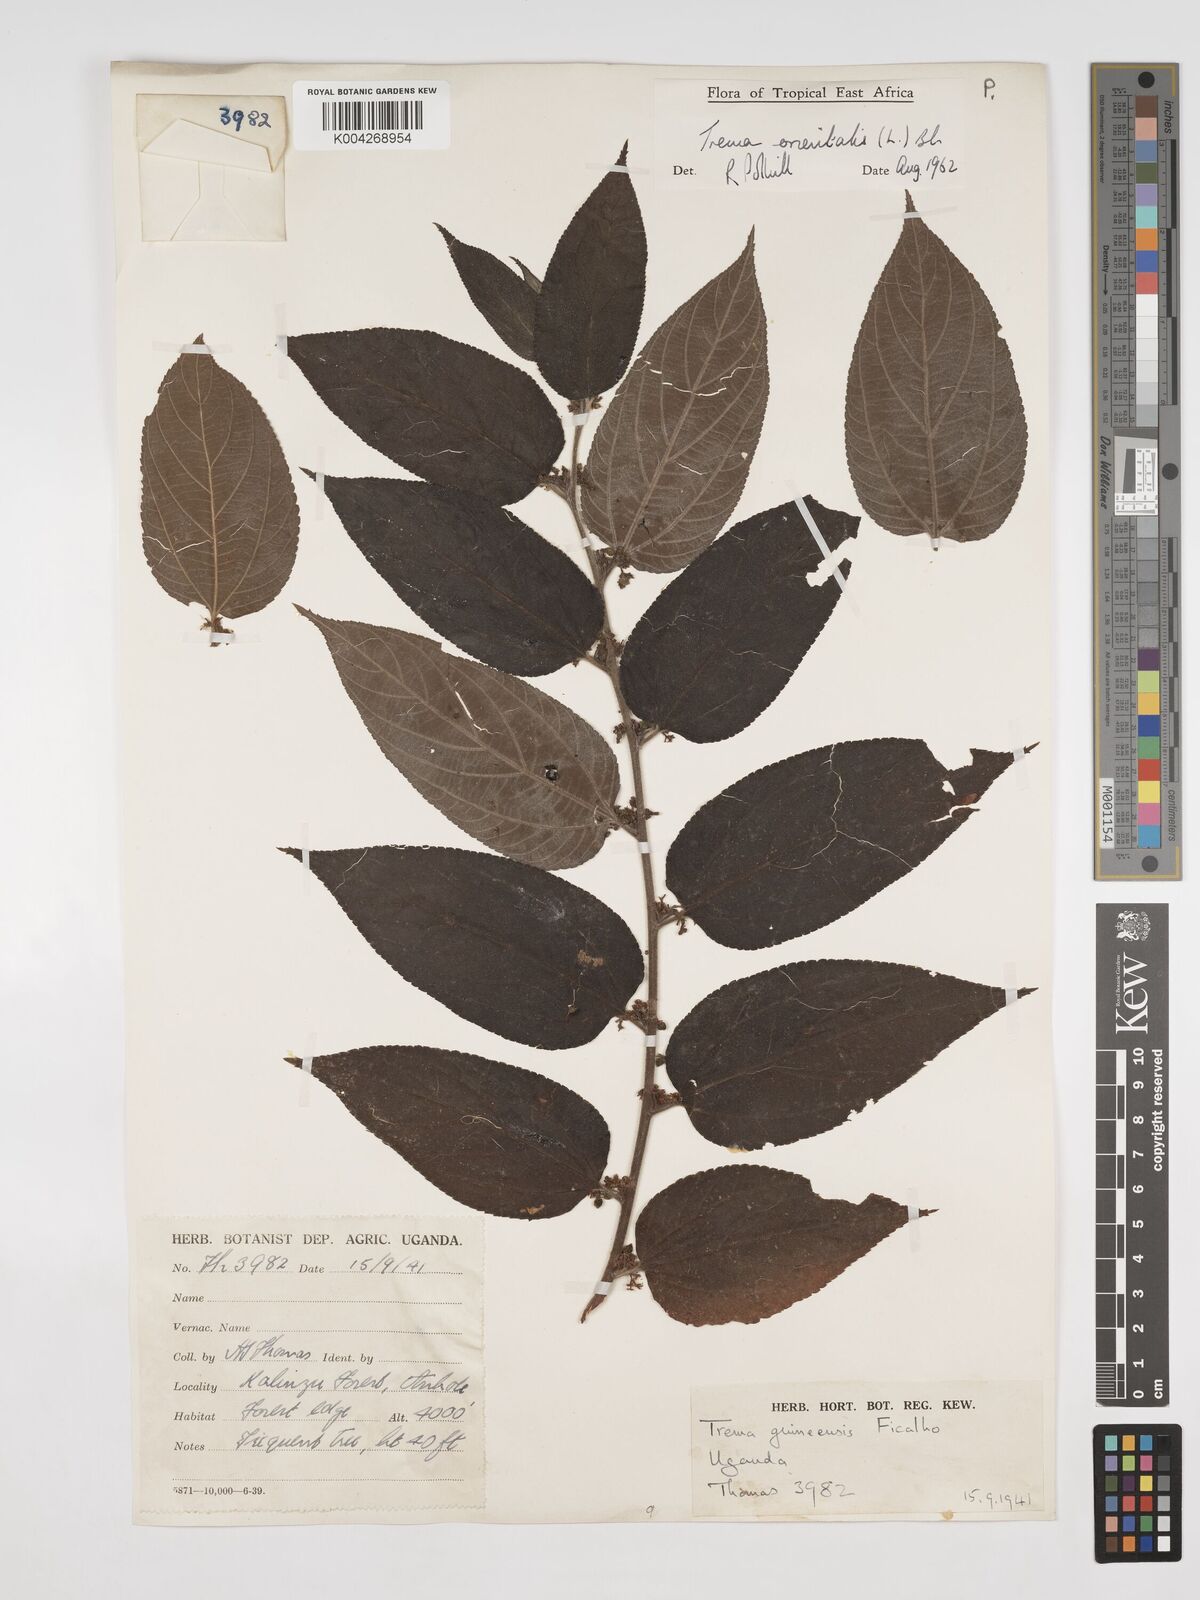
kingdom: Plantae
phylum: Tracheophyta
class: Magnoliopsida
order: Rosales
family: Cannabaceae
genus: Trema
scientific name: Trema orientale
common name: Indian charcoal tree
